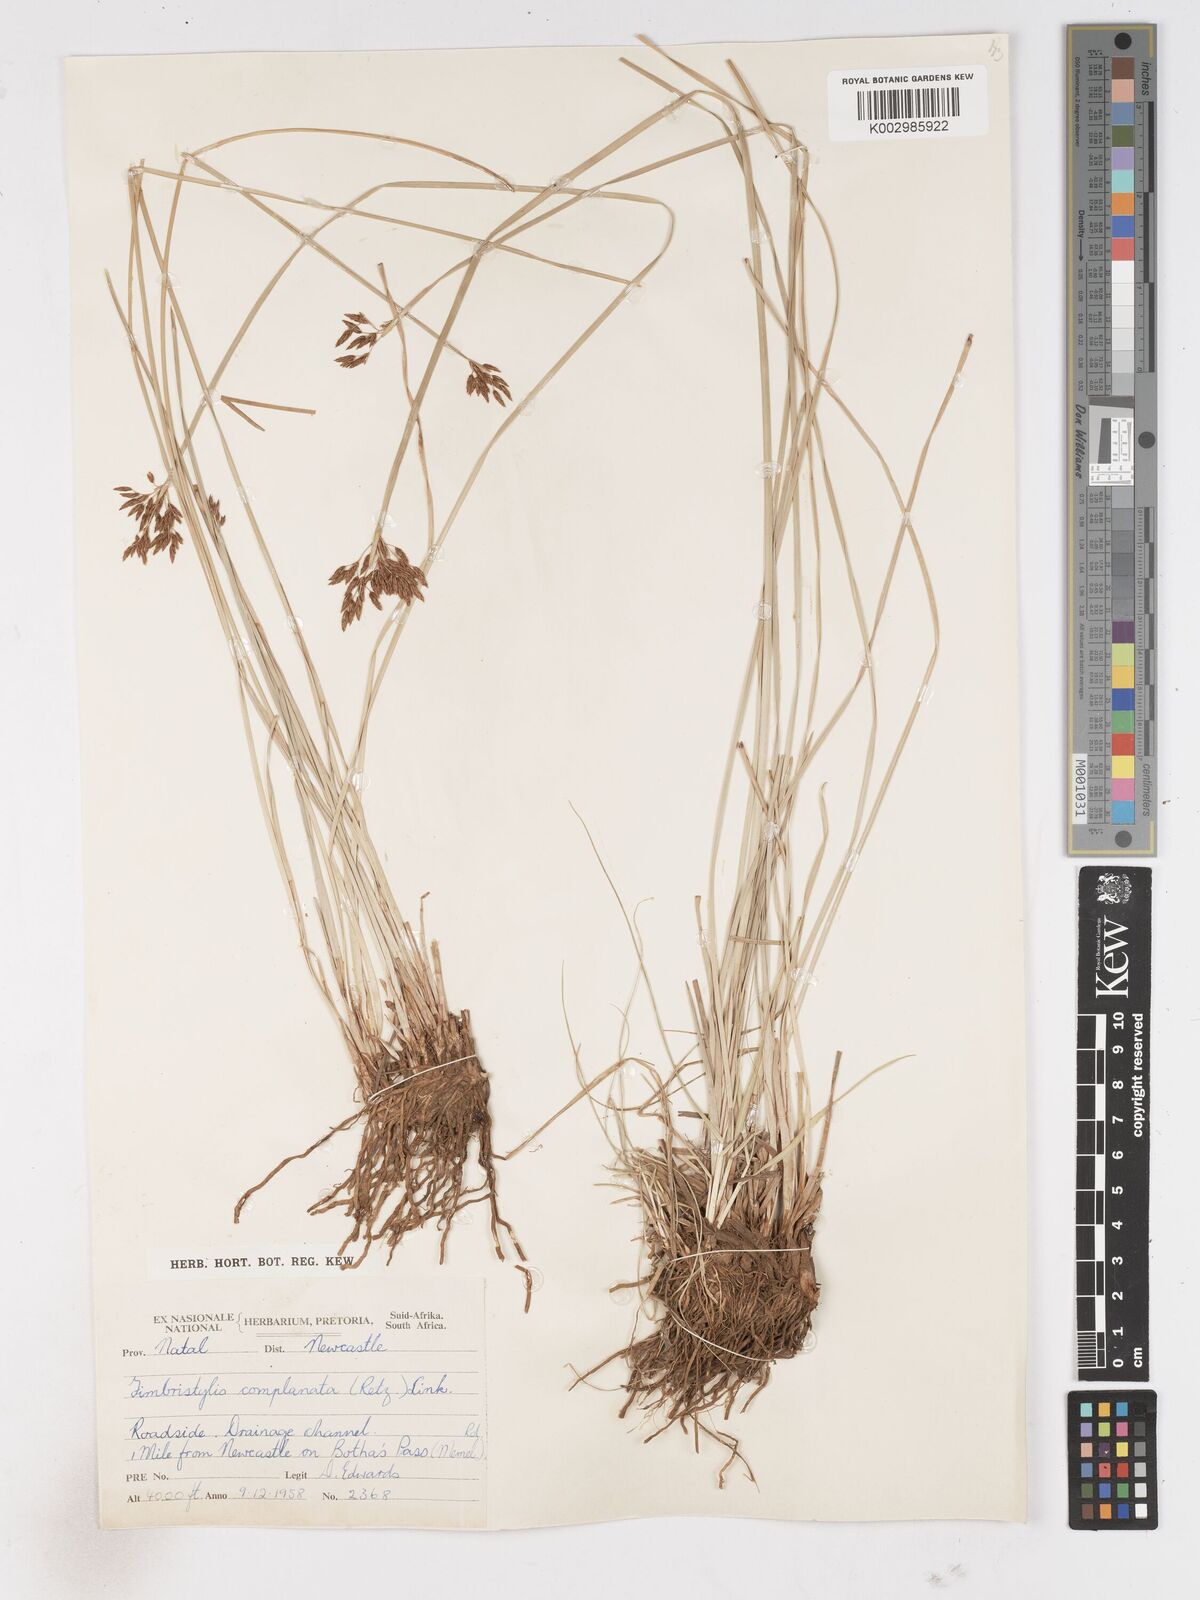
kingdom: Plantae
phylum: Tracheophyta
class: Liliopsida
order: Poales
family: Cyperaceae
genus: Fimbristylis
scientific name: Fimbristylis complanata
